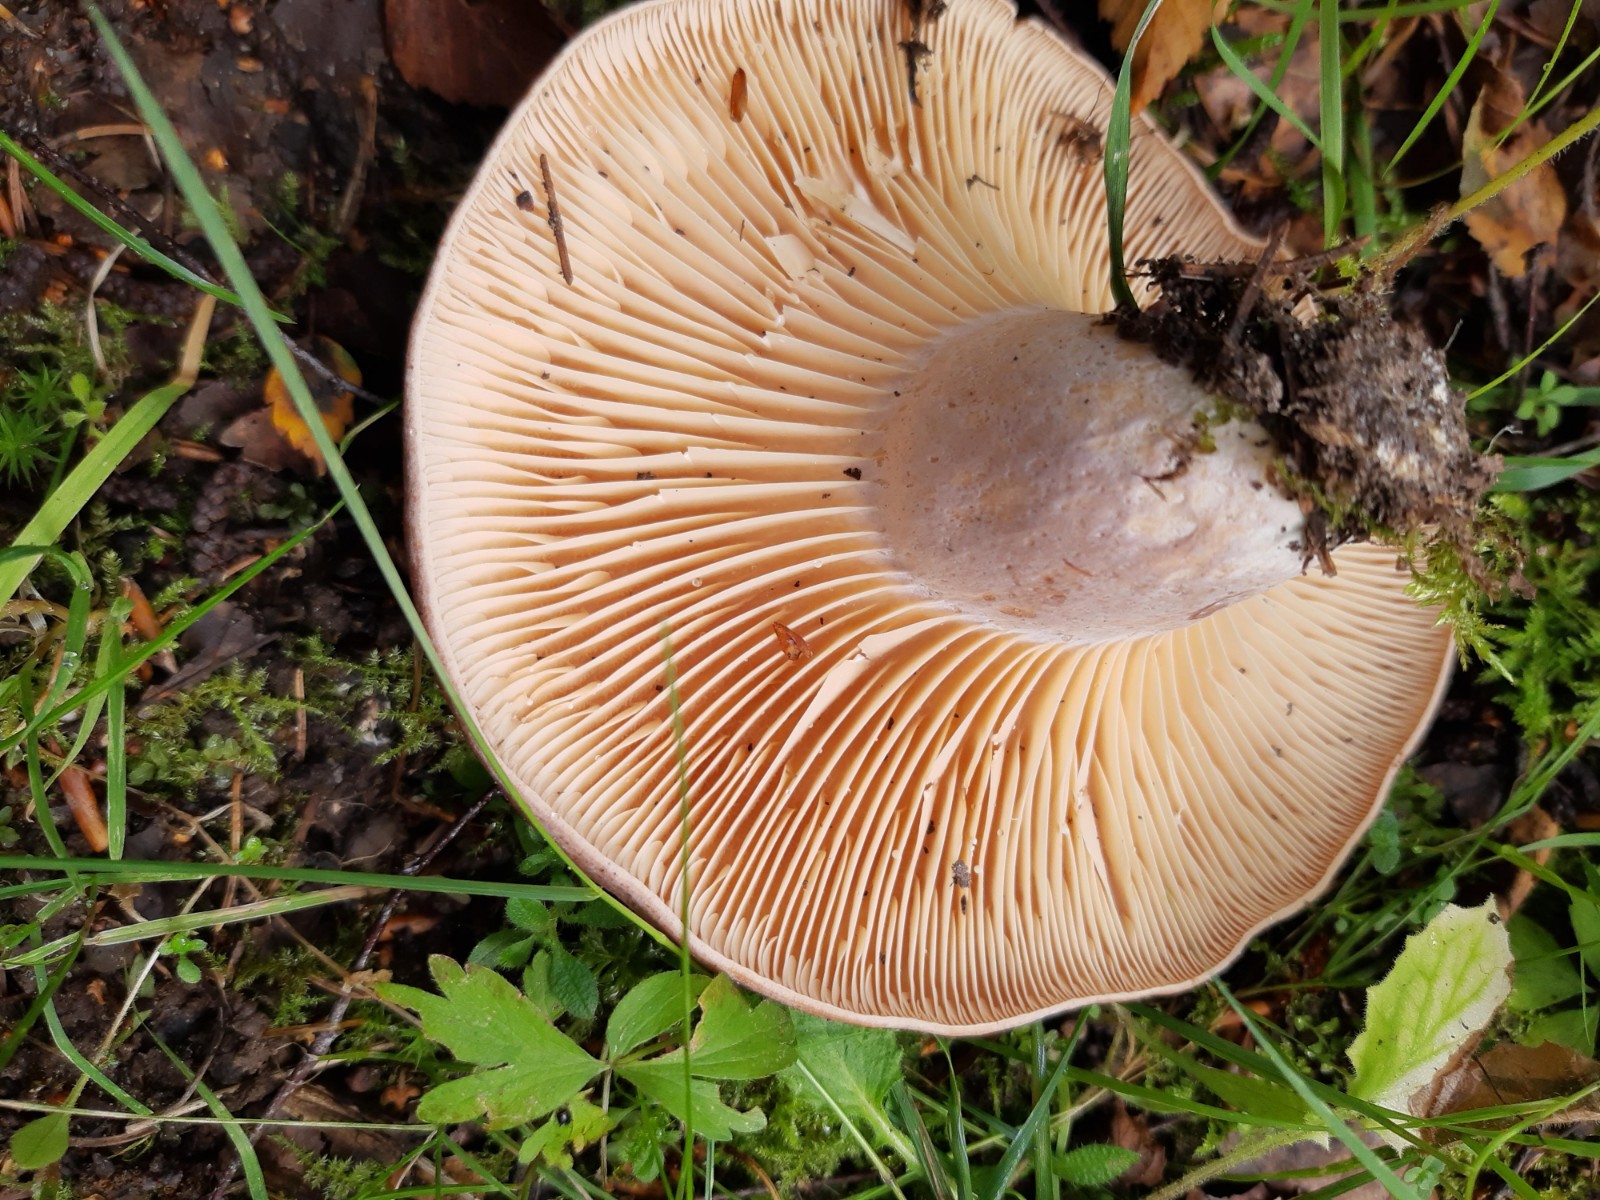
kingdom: Fungi
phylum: Basidiomycota
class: Agaricomycetes
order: Russulales
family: Russulaceae
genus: Lactarius
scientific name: Lactarius flexuosus
